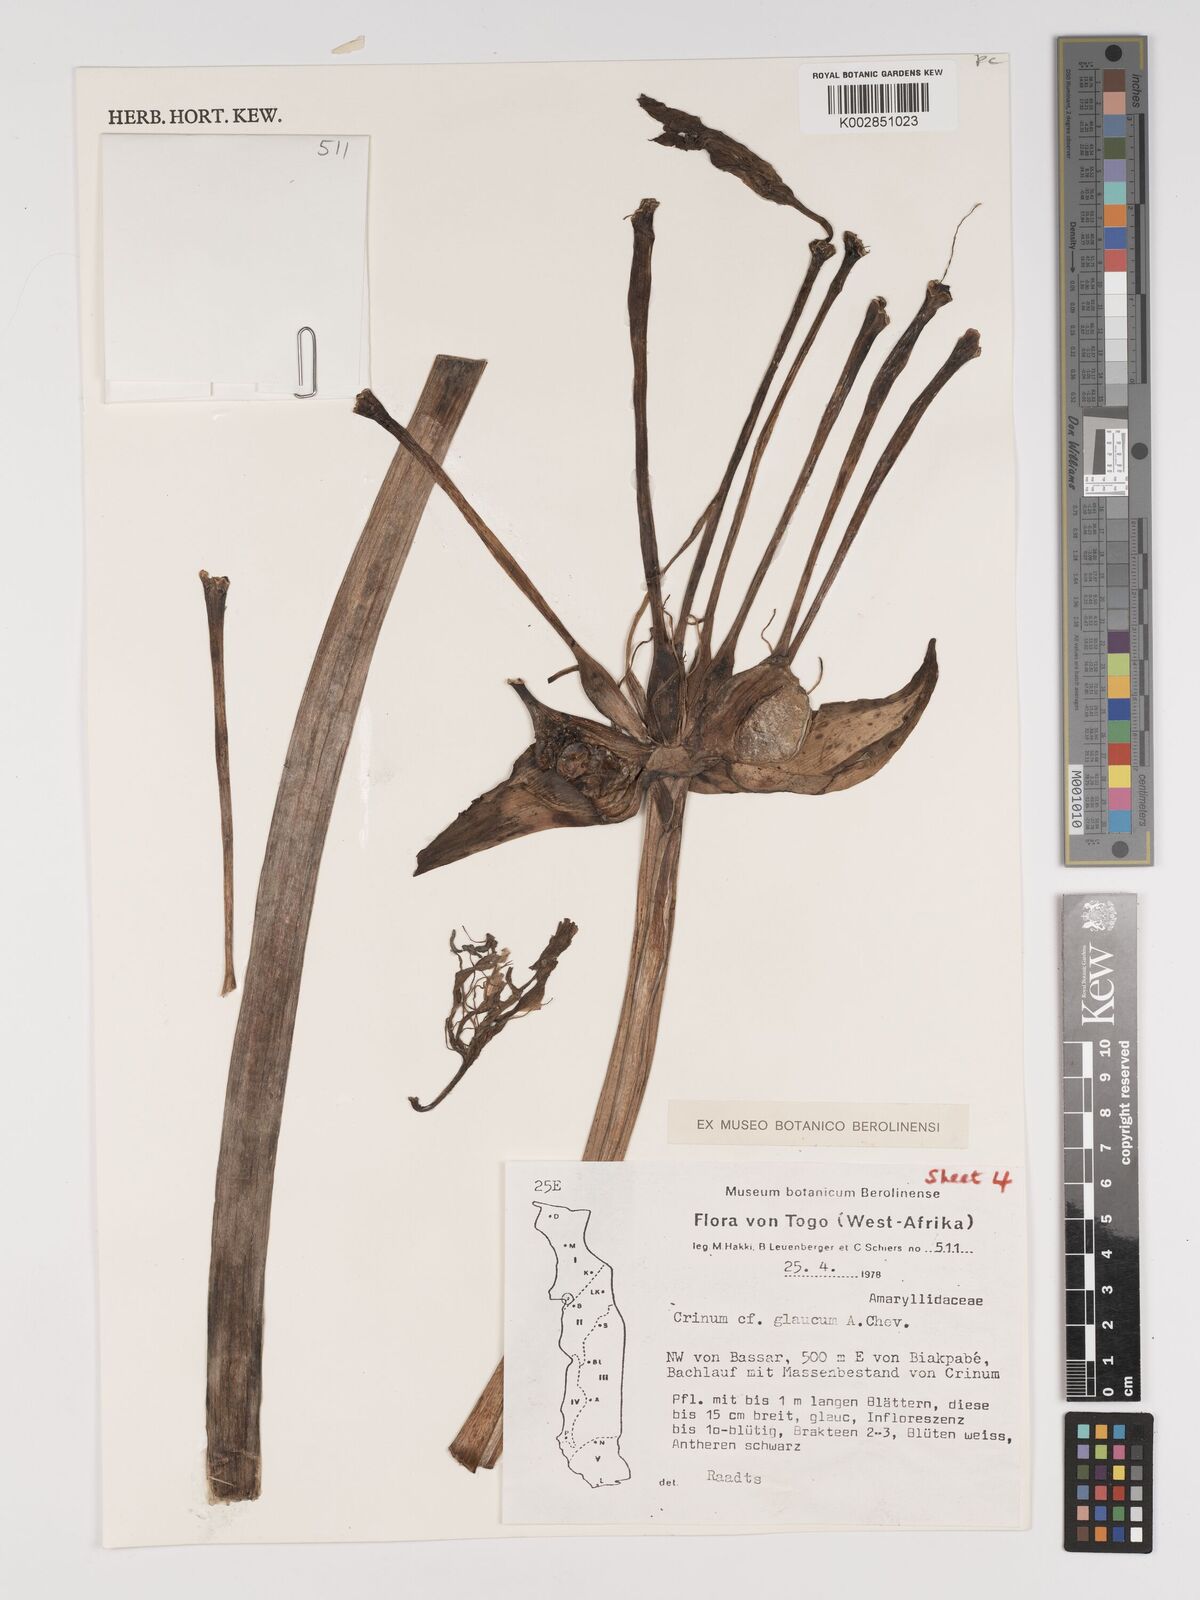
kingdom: Plantae
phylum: Tracheophyta
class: Liliopsida
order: Asparagales
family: Amaryllidaceae
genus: Crinum
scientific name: Crinum glaucum
